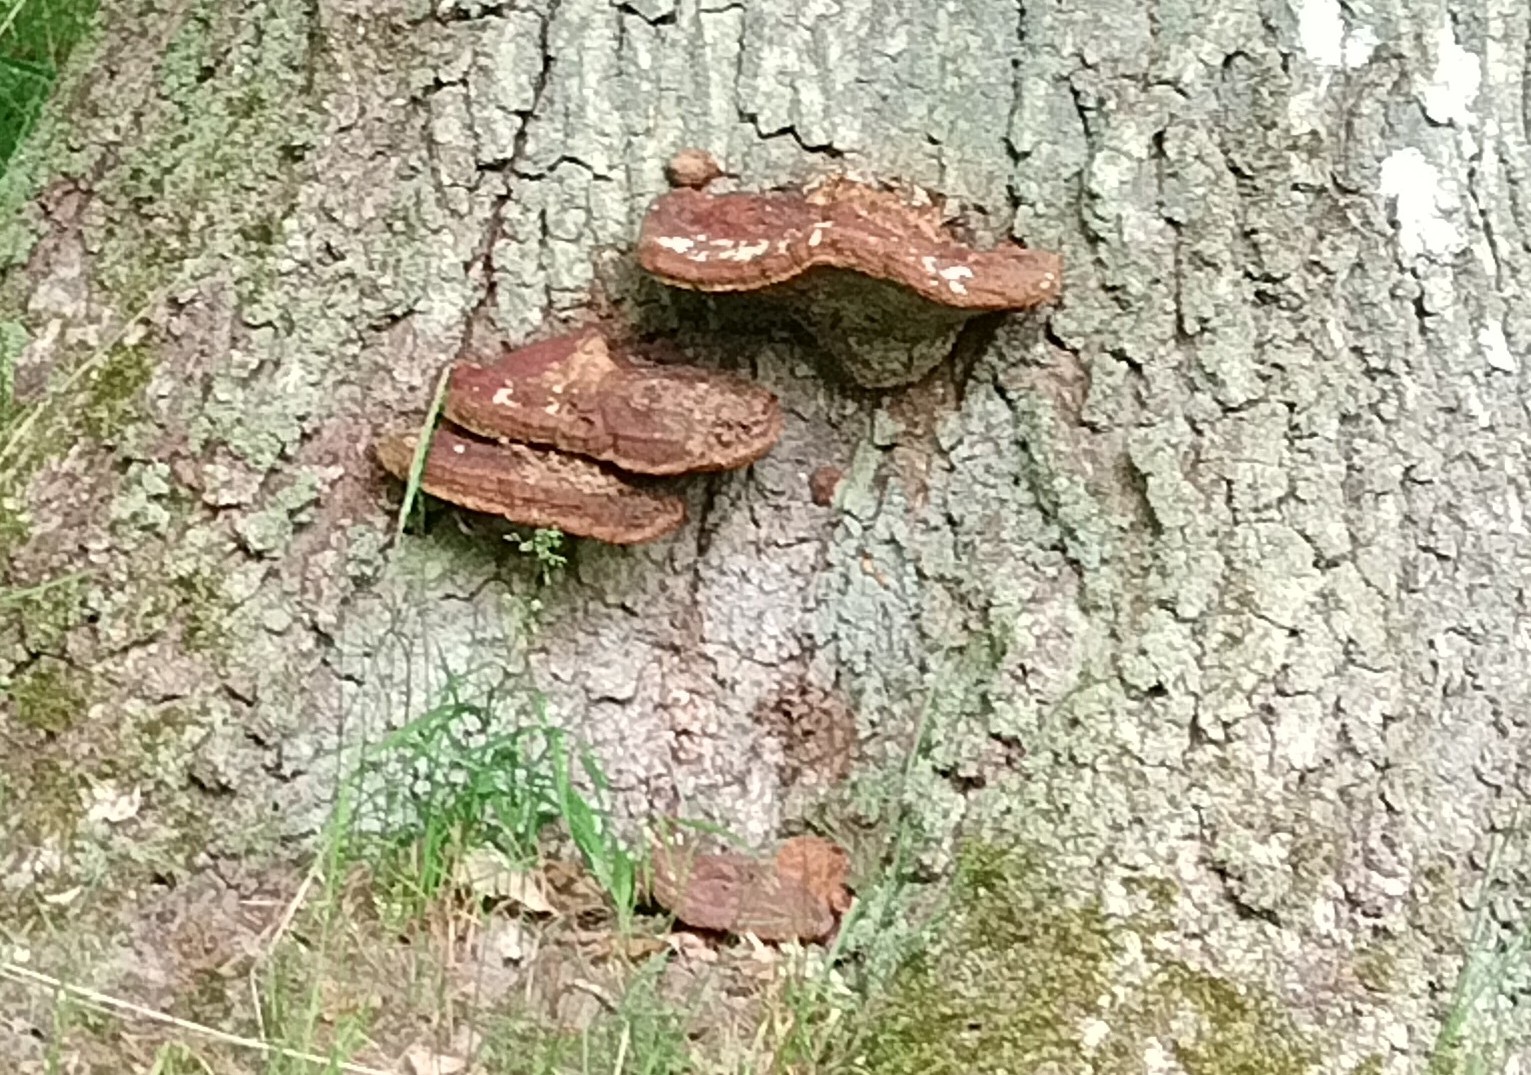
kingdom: Fungi
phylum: Basidiomycota
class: Agaricomycetes
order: Polyporales
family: Polyporaceae
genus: Ganoderma
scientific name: Ganoderma resinaceum
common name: gyldenbrun lakporesvamp
